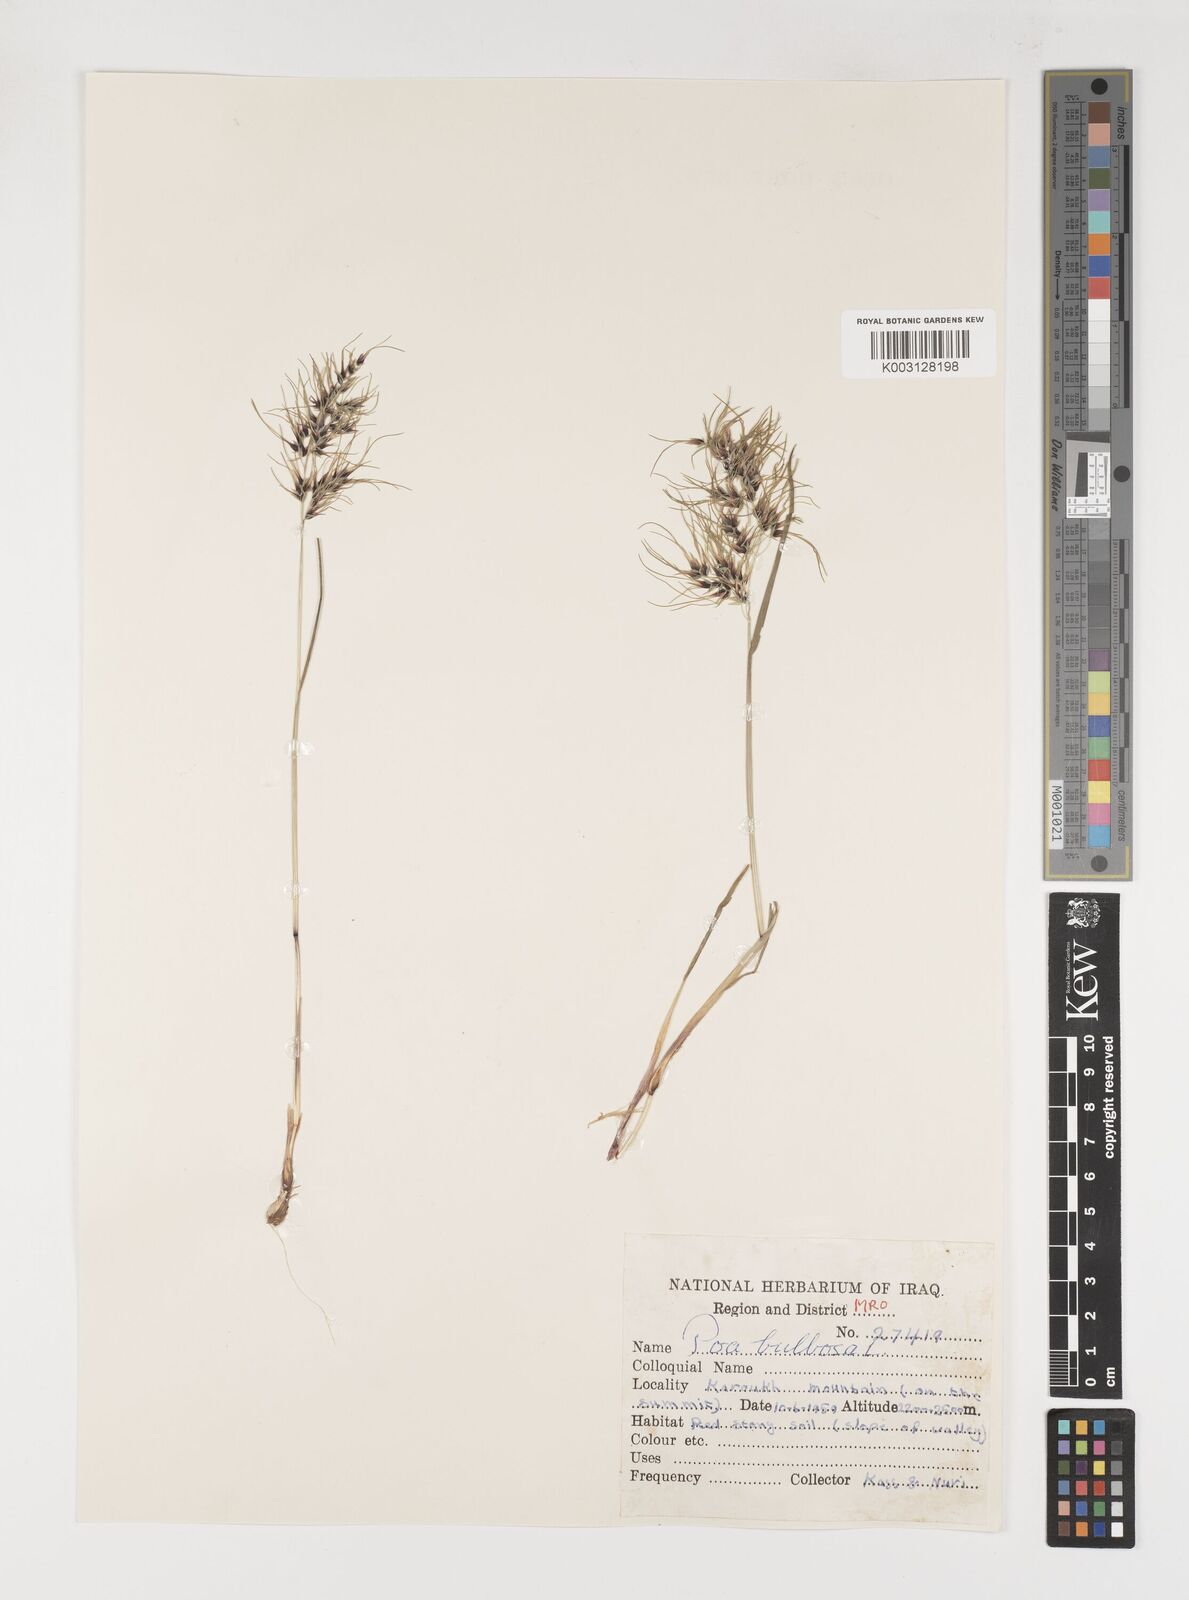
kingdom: Plantae
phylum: Tracheophyta
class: Liliopsida
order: Poales
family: Poaceae
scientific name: Poaceae
